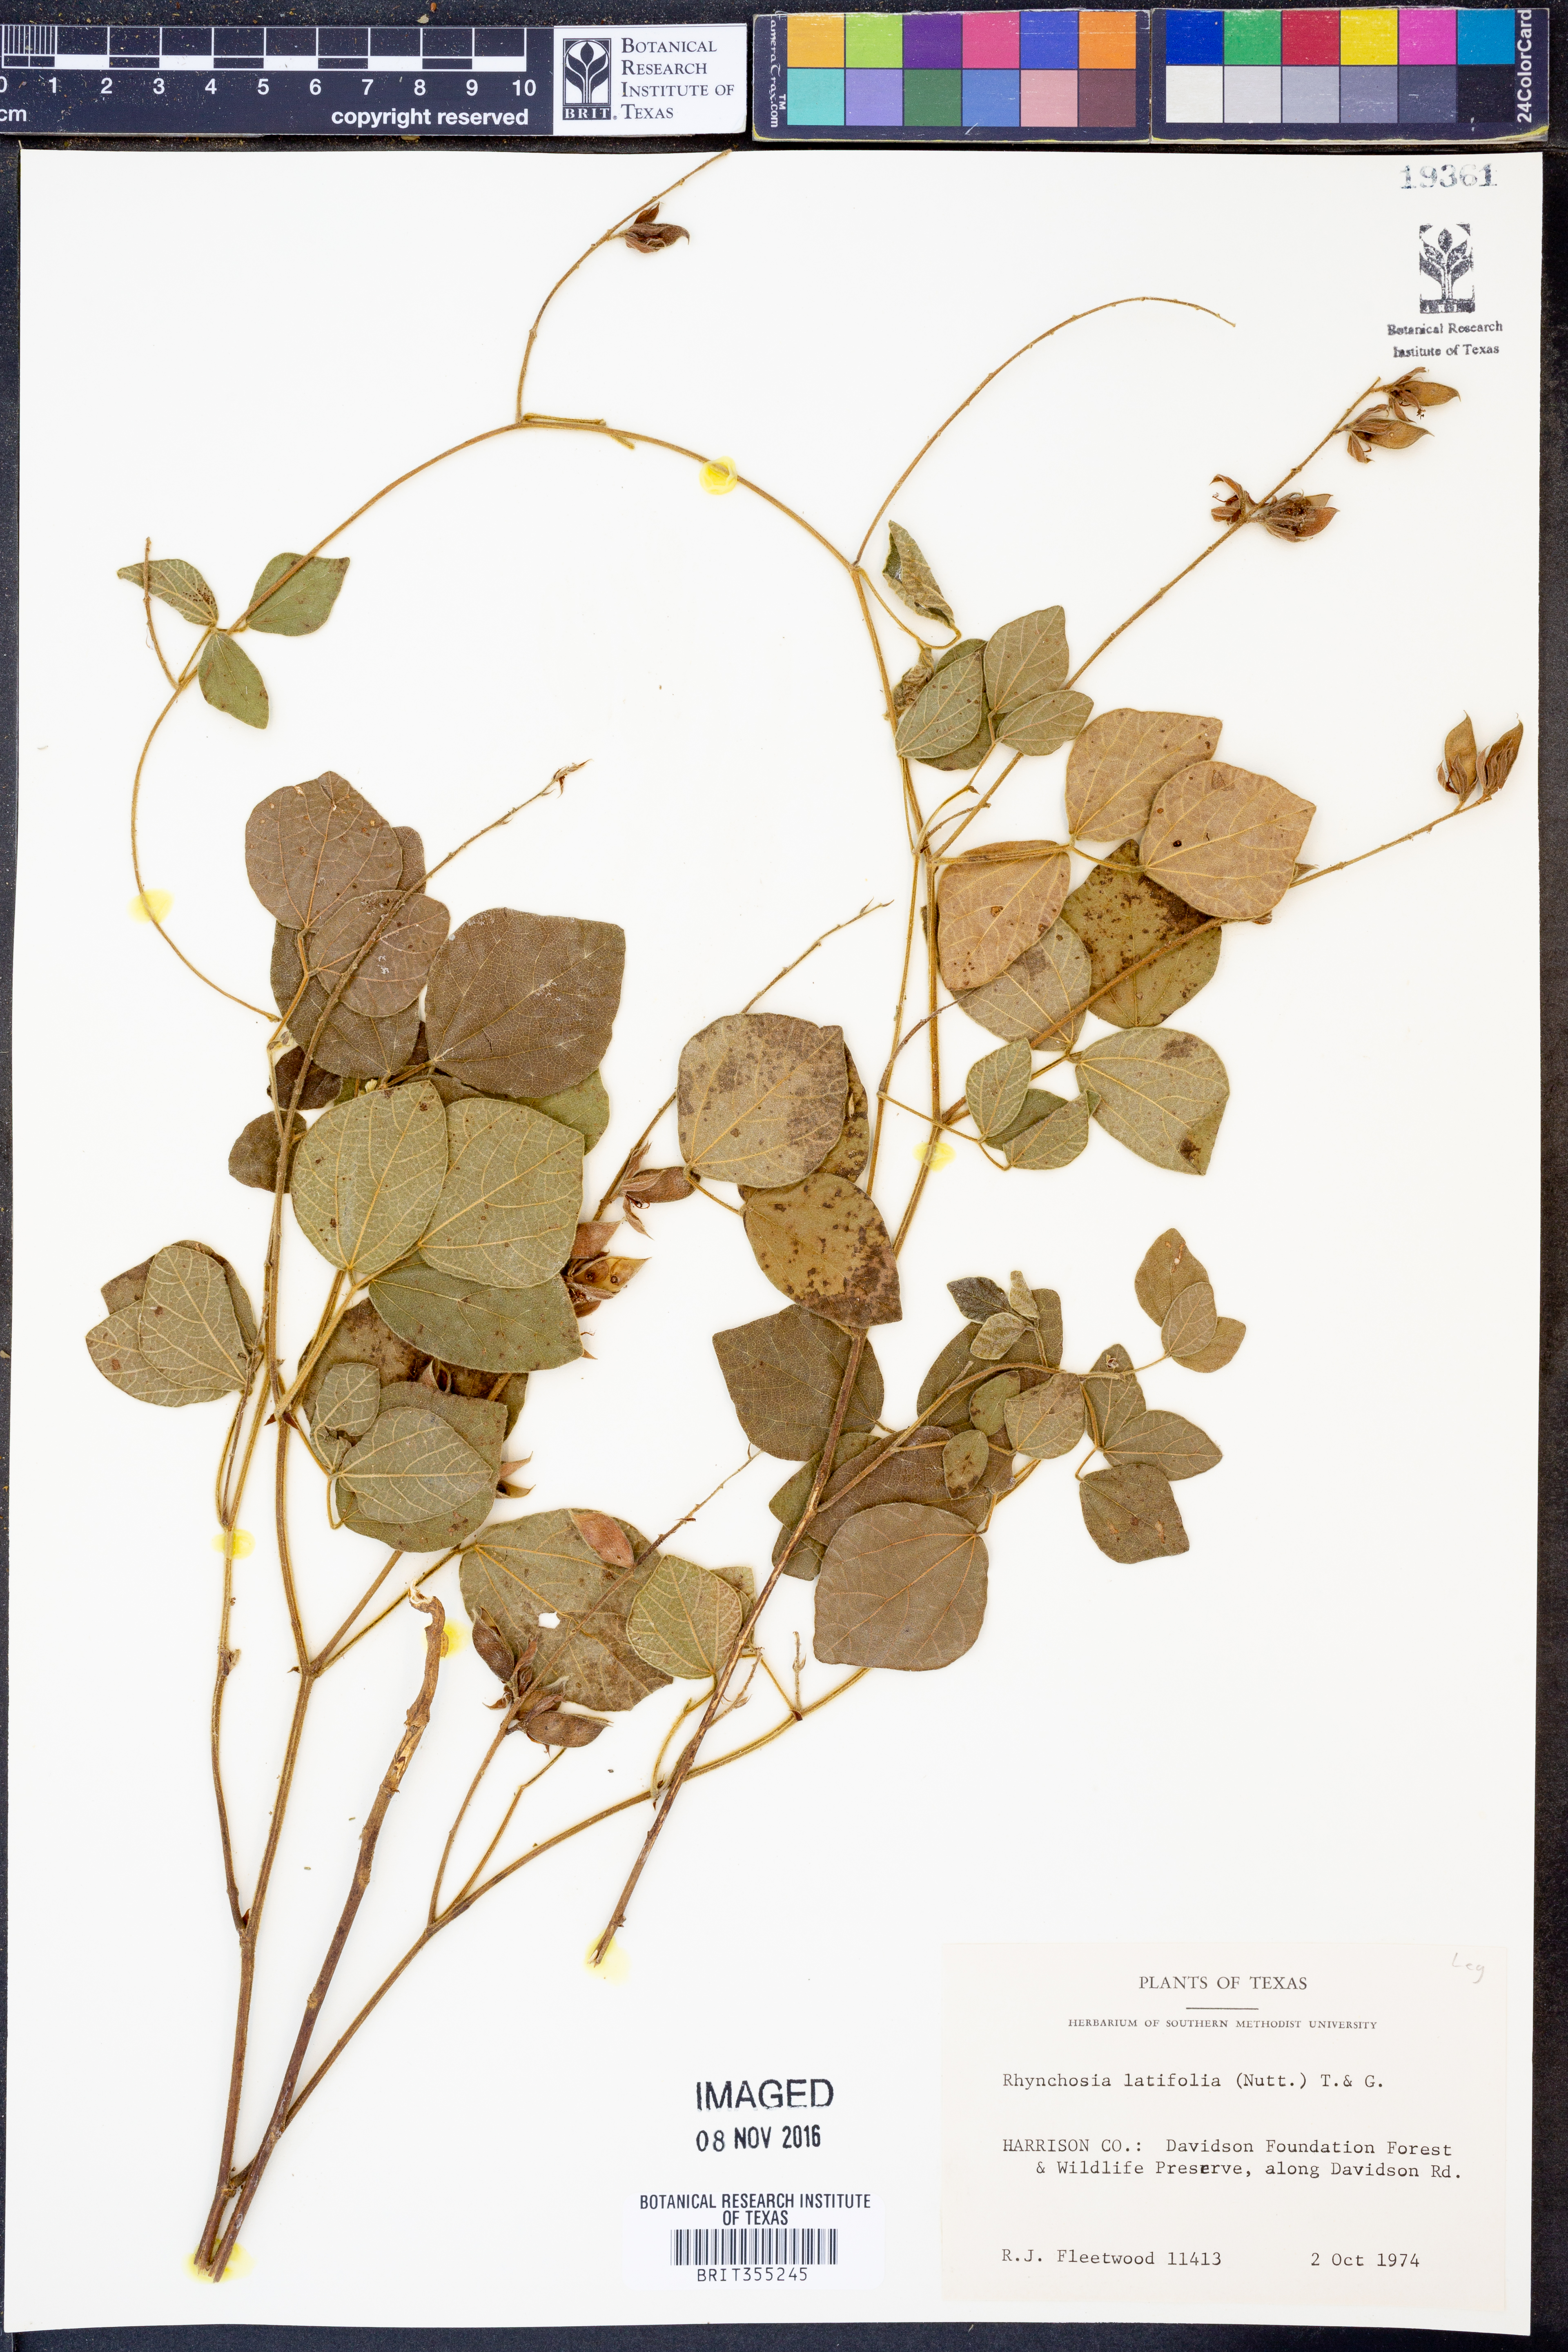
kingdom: Plantae
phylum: Tracheophyta
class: Magnoliopsida
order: Fabales
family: Fabaceae
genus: Rhynchosia
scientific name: Rhynchosia latifolia
